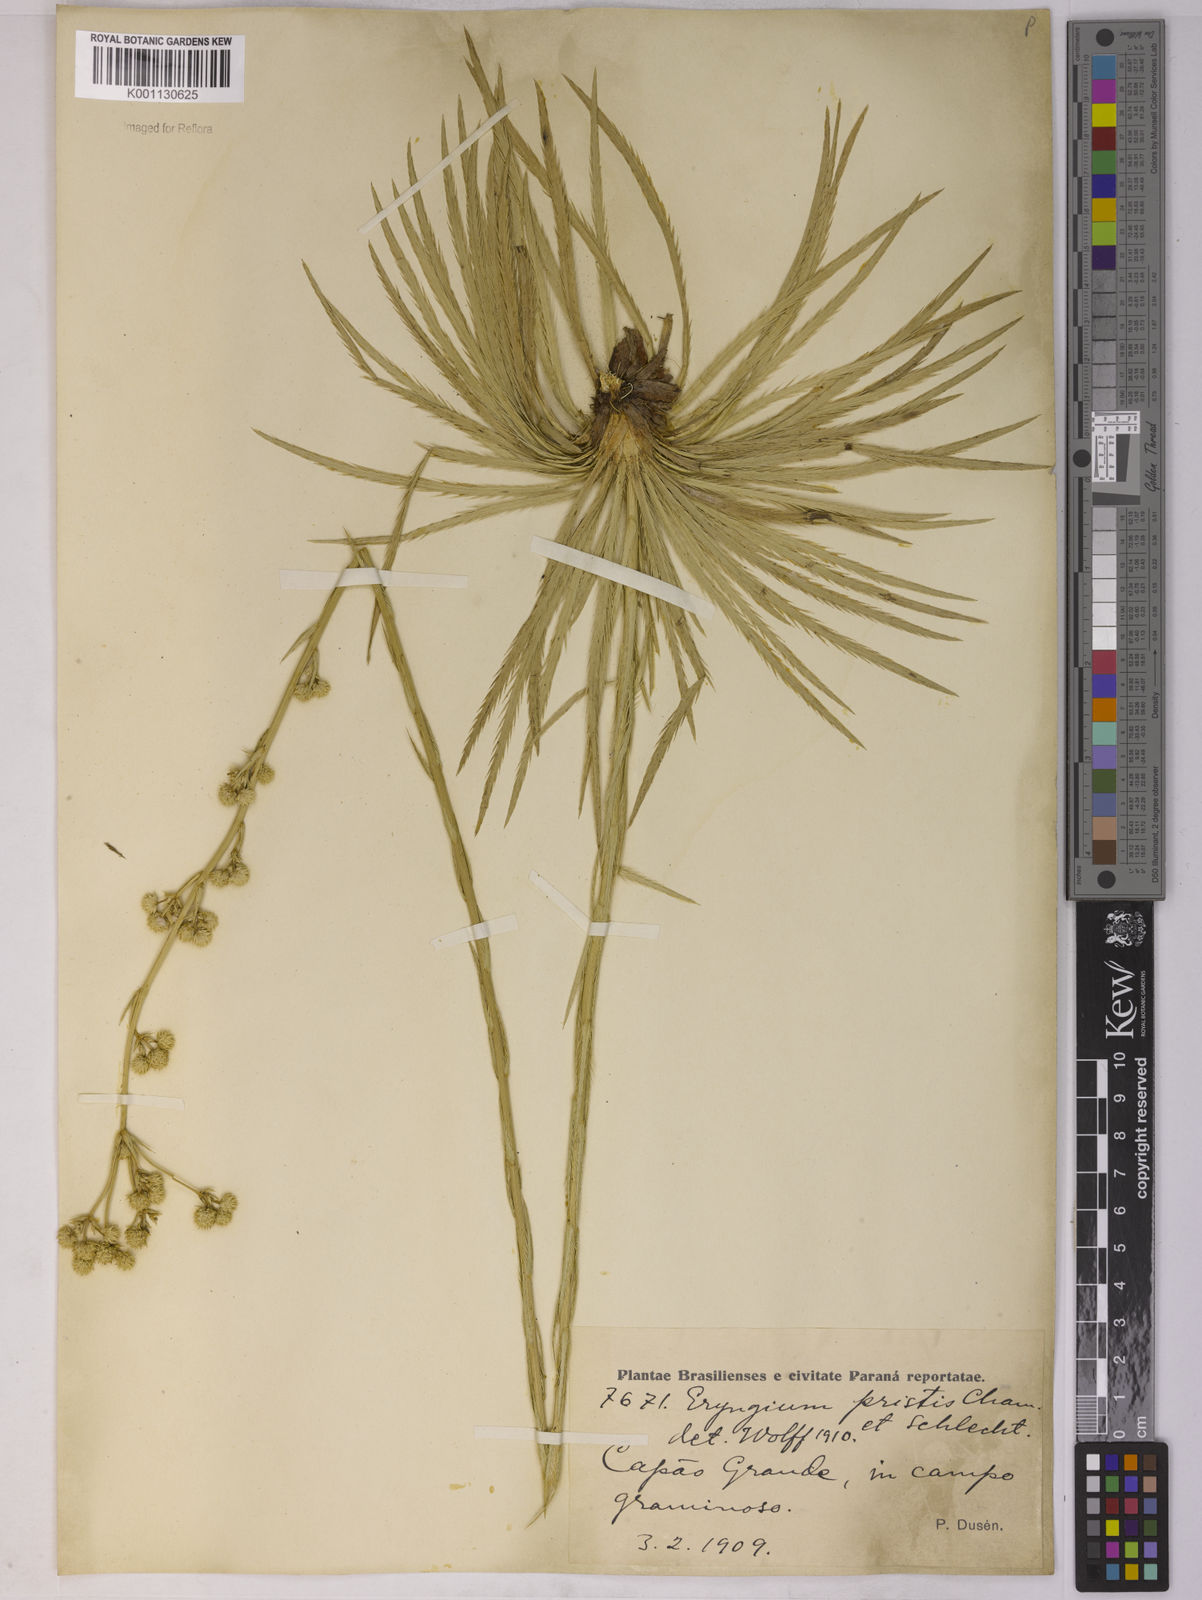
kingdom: Plantae
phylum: Tracheophyta
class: Magnoliopsida
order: Apiales
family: Apiaceae
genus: Eryngium
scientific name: Eryngium pristis
